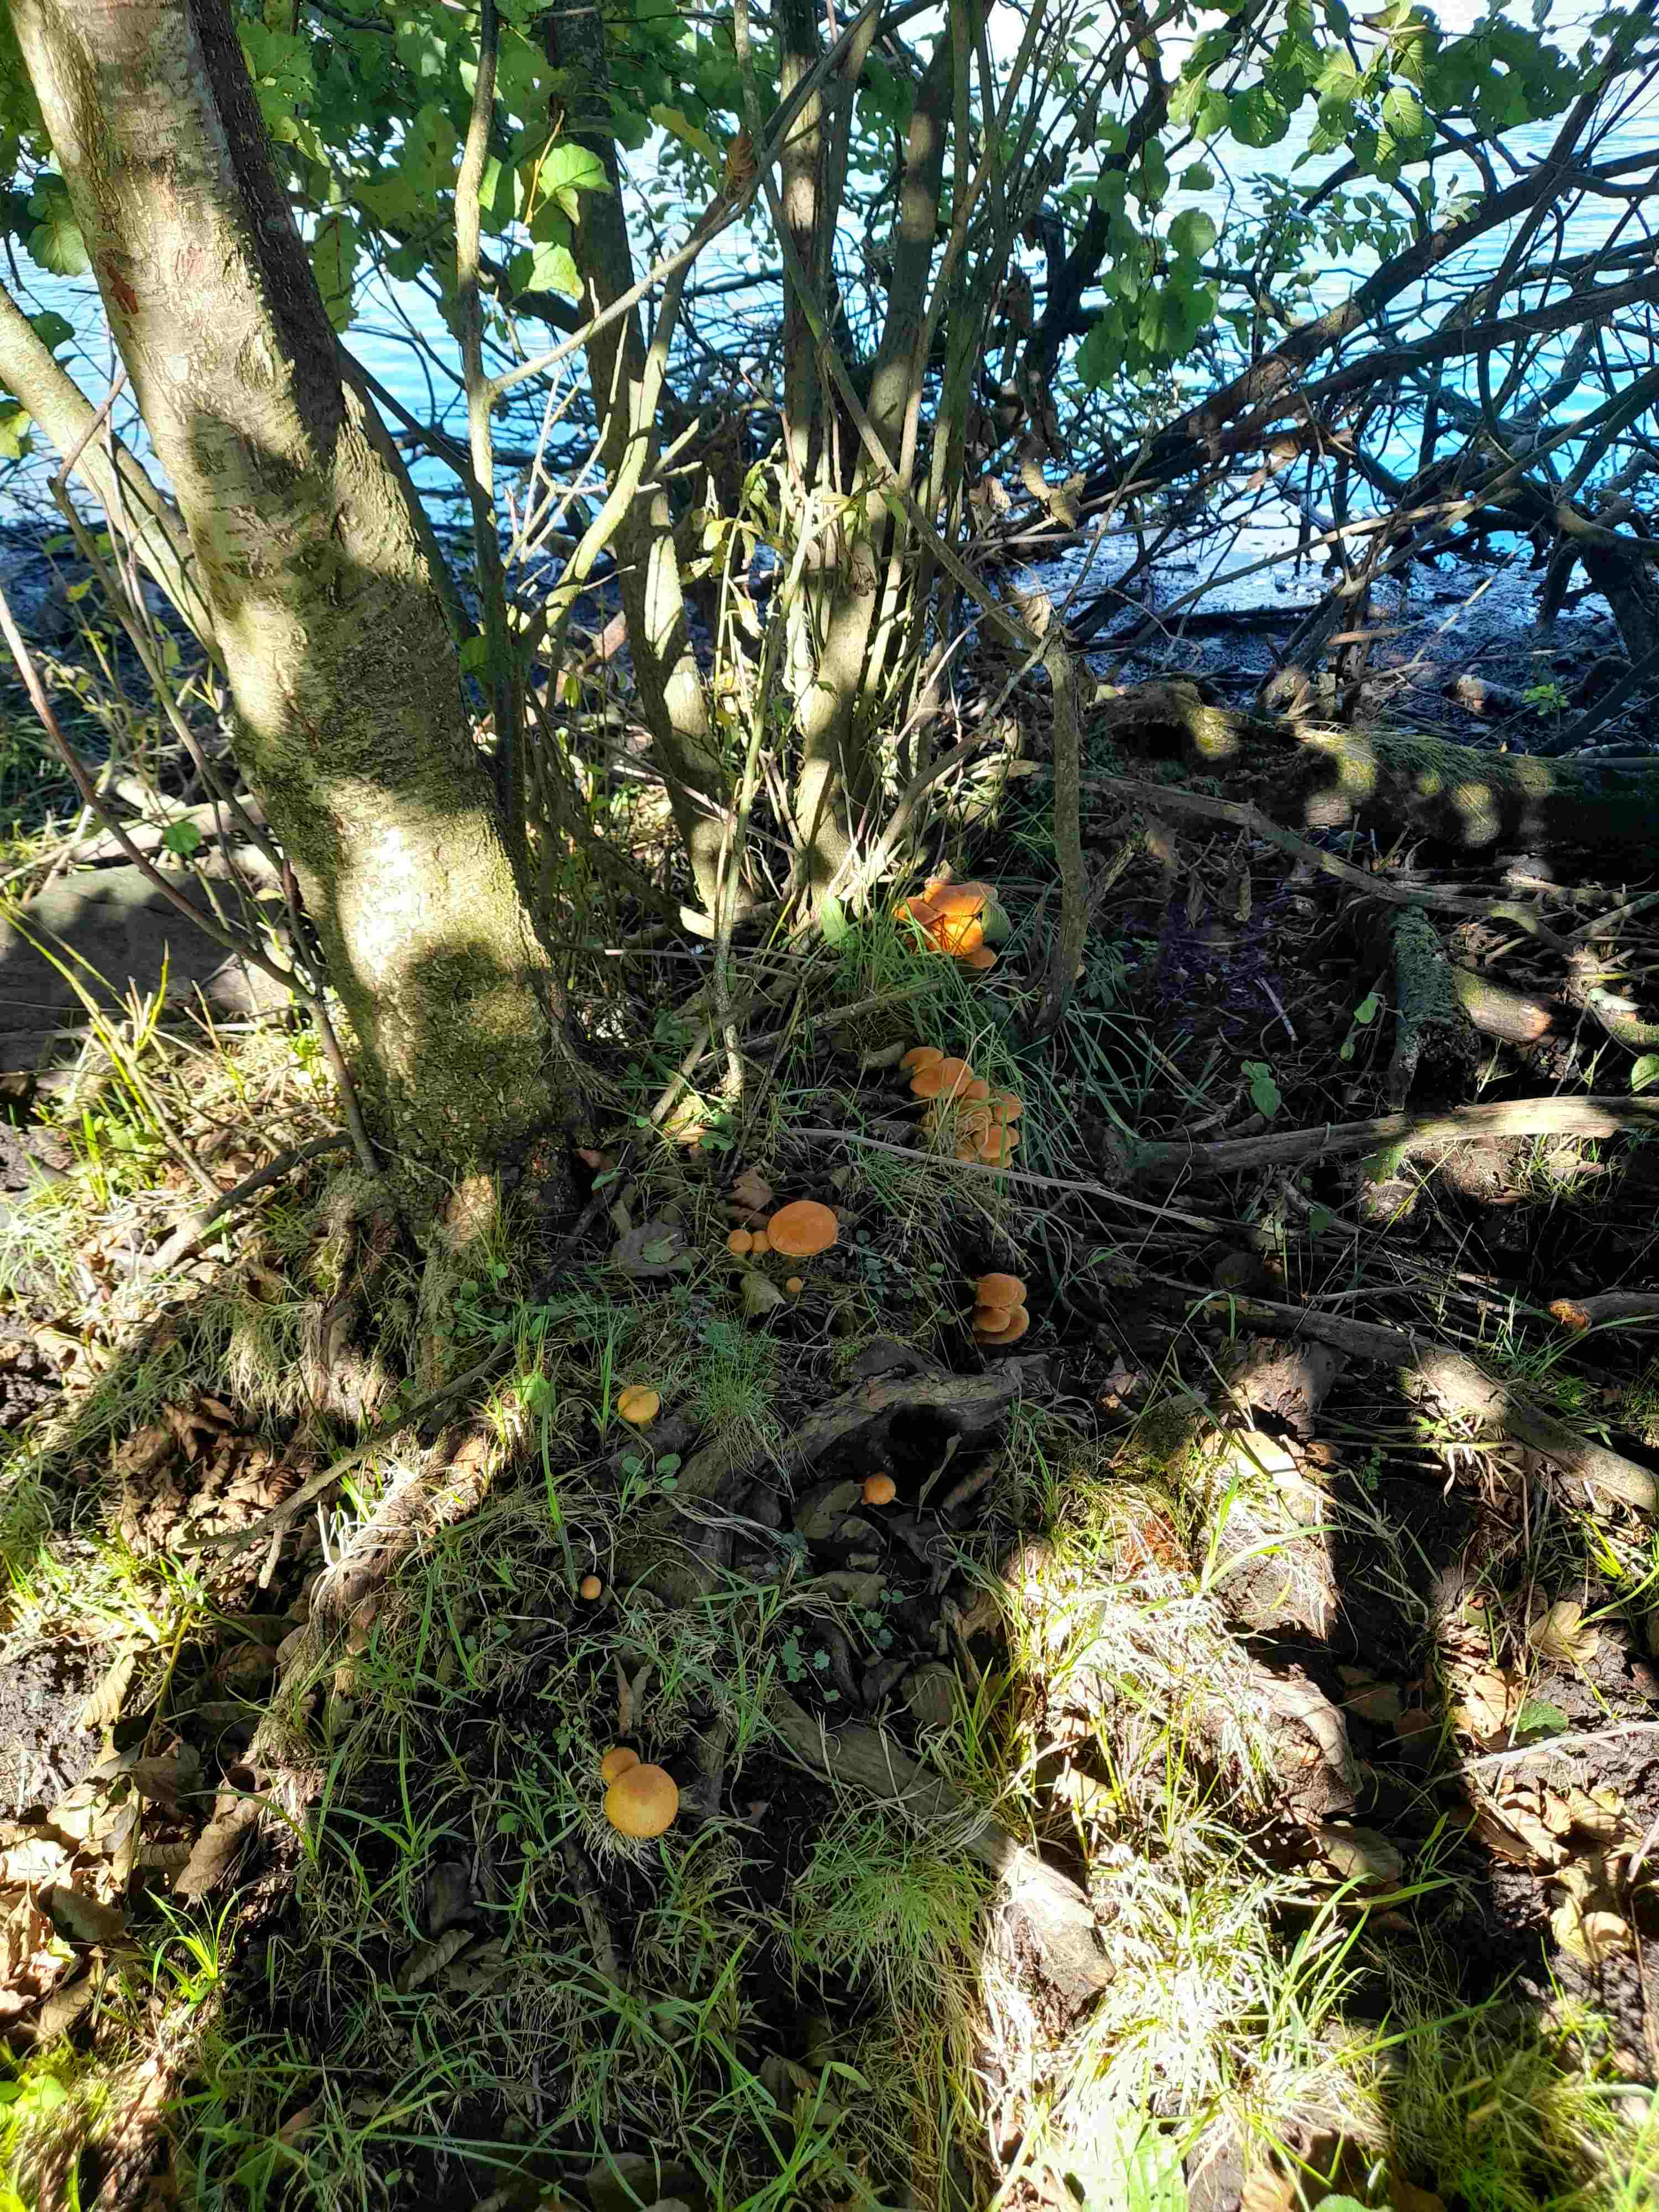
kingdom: Fungi
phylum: Basidiomycota
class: Agaricomycetes
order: Agaricales
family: Hymenogastraceae
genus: Gymnopilus
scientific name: Gymnopilus spectabilis
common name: fibret flammehat
